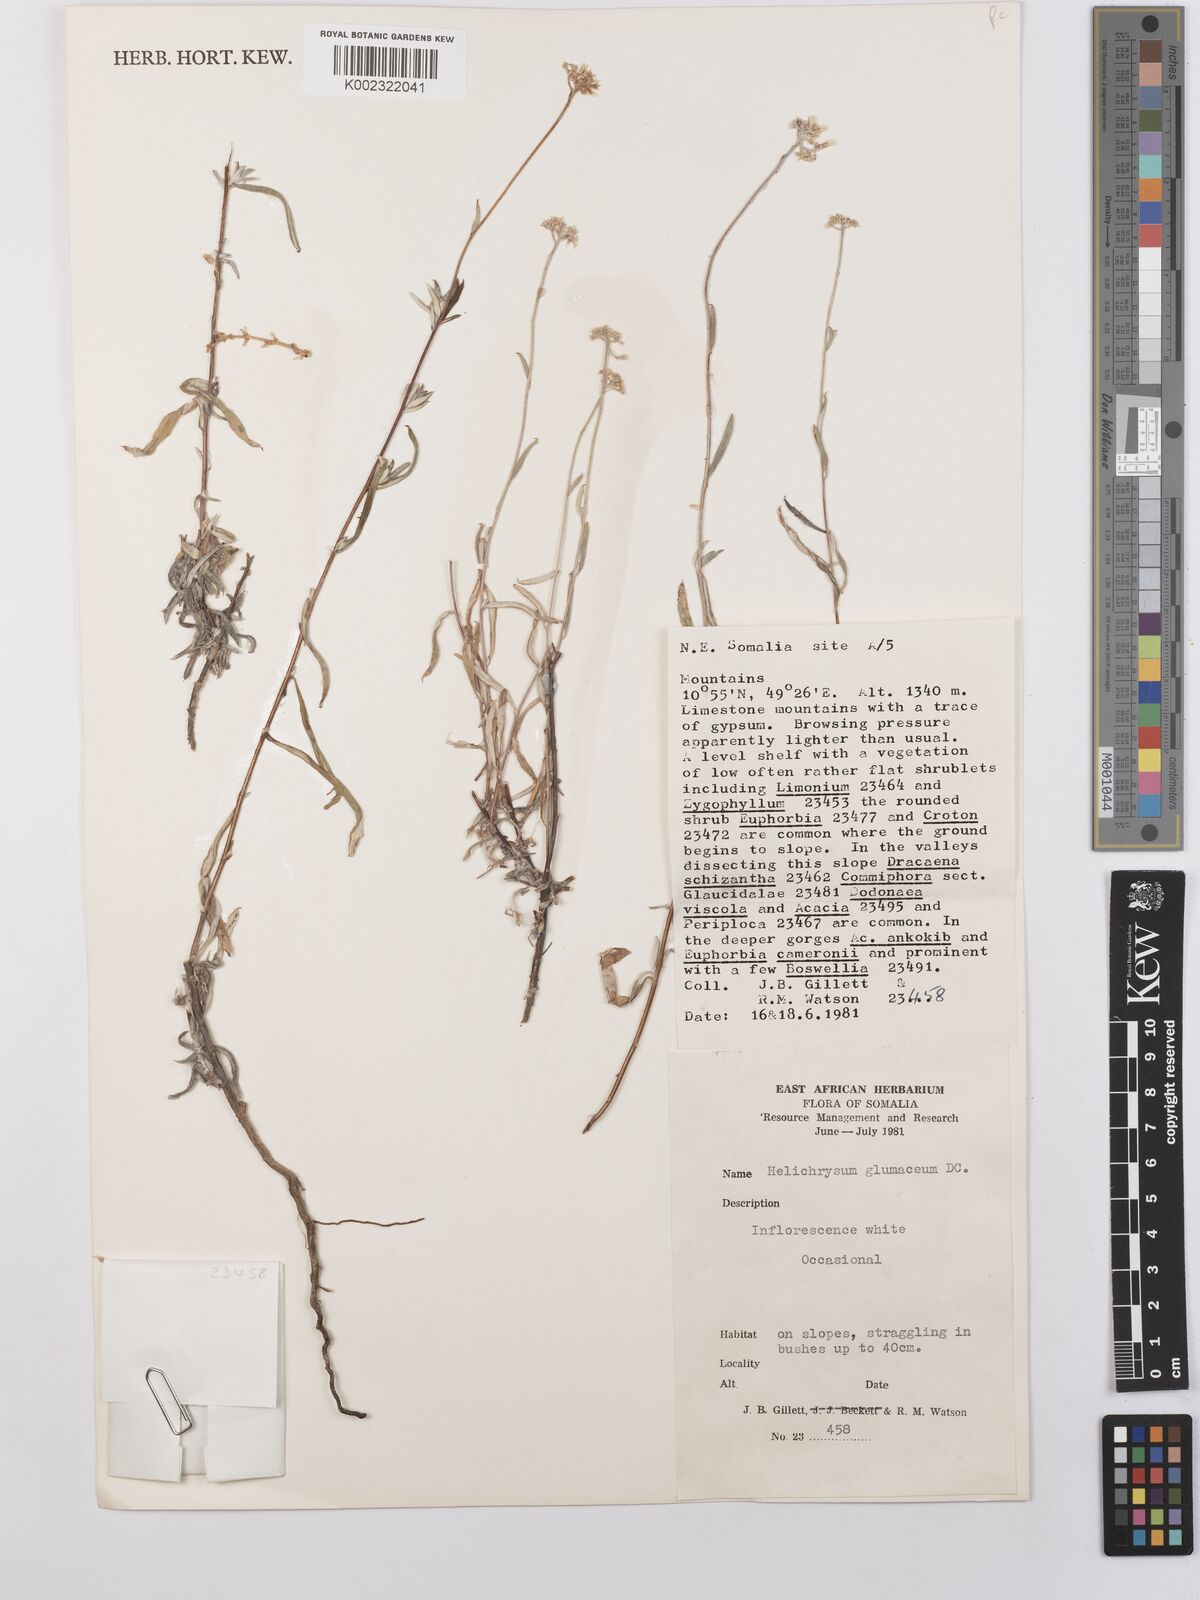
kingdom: Plantae
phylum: Tracheophyta
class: Magnoliopsida
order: Asterales
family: Asteraceae
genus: Helichrysum
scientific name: Helichrysum glumaceum
